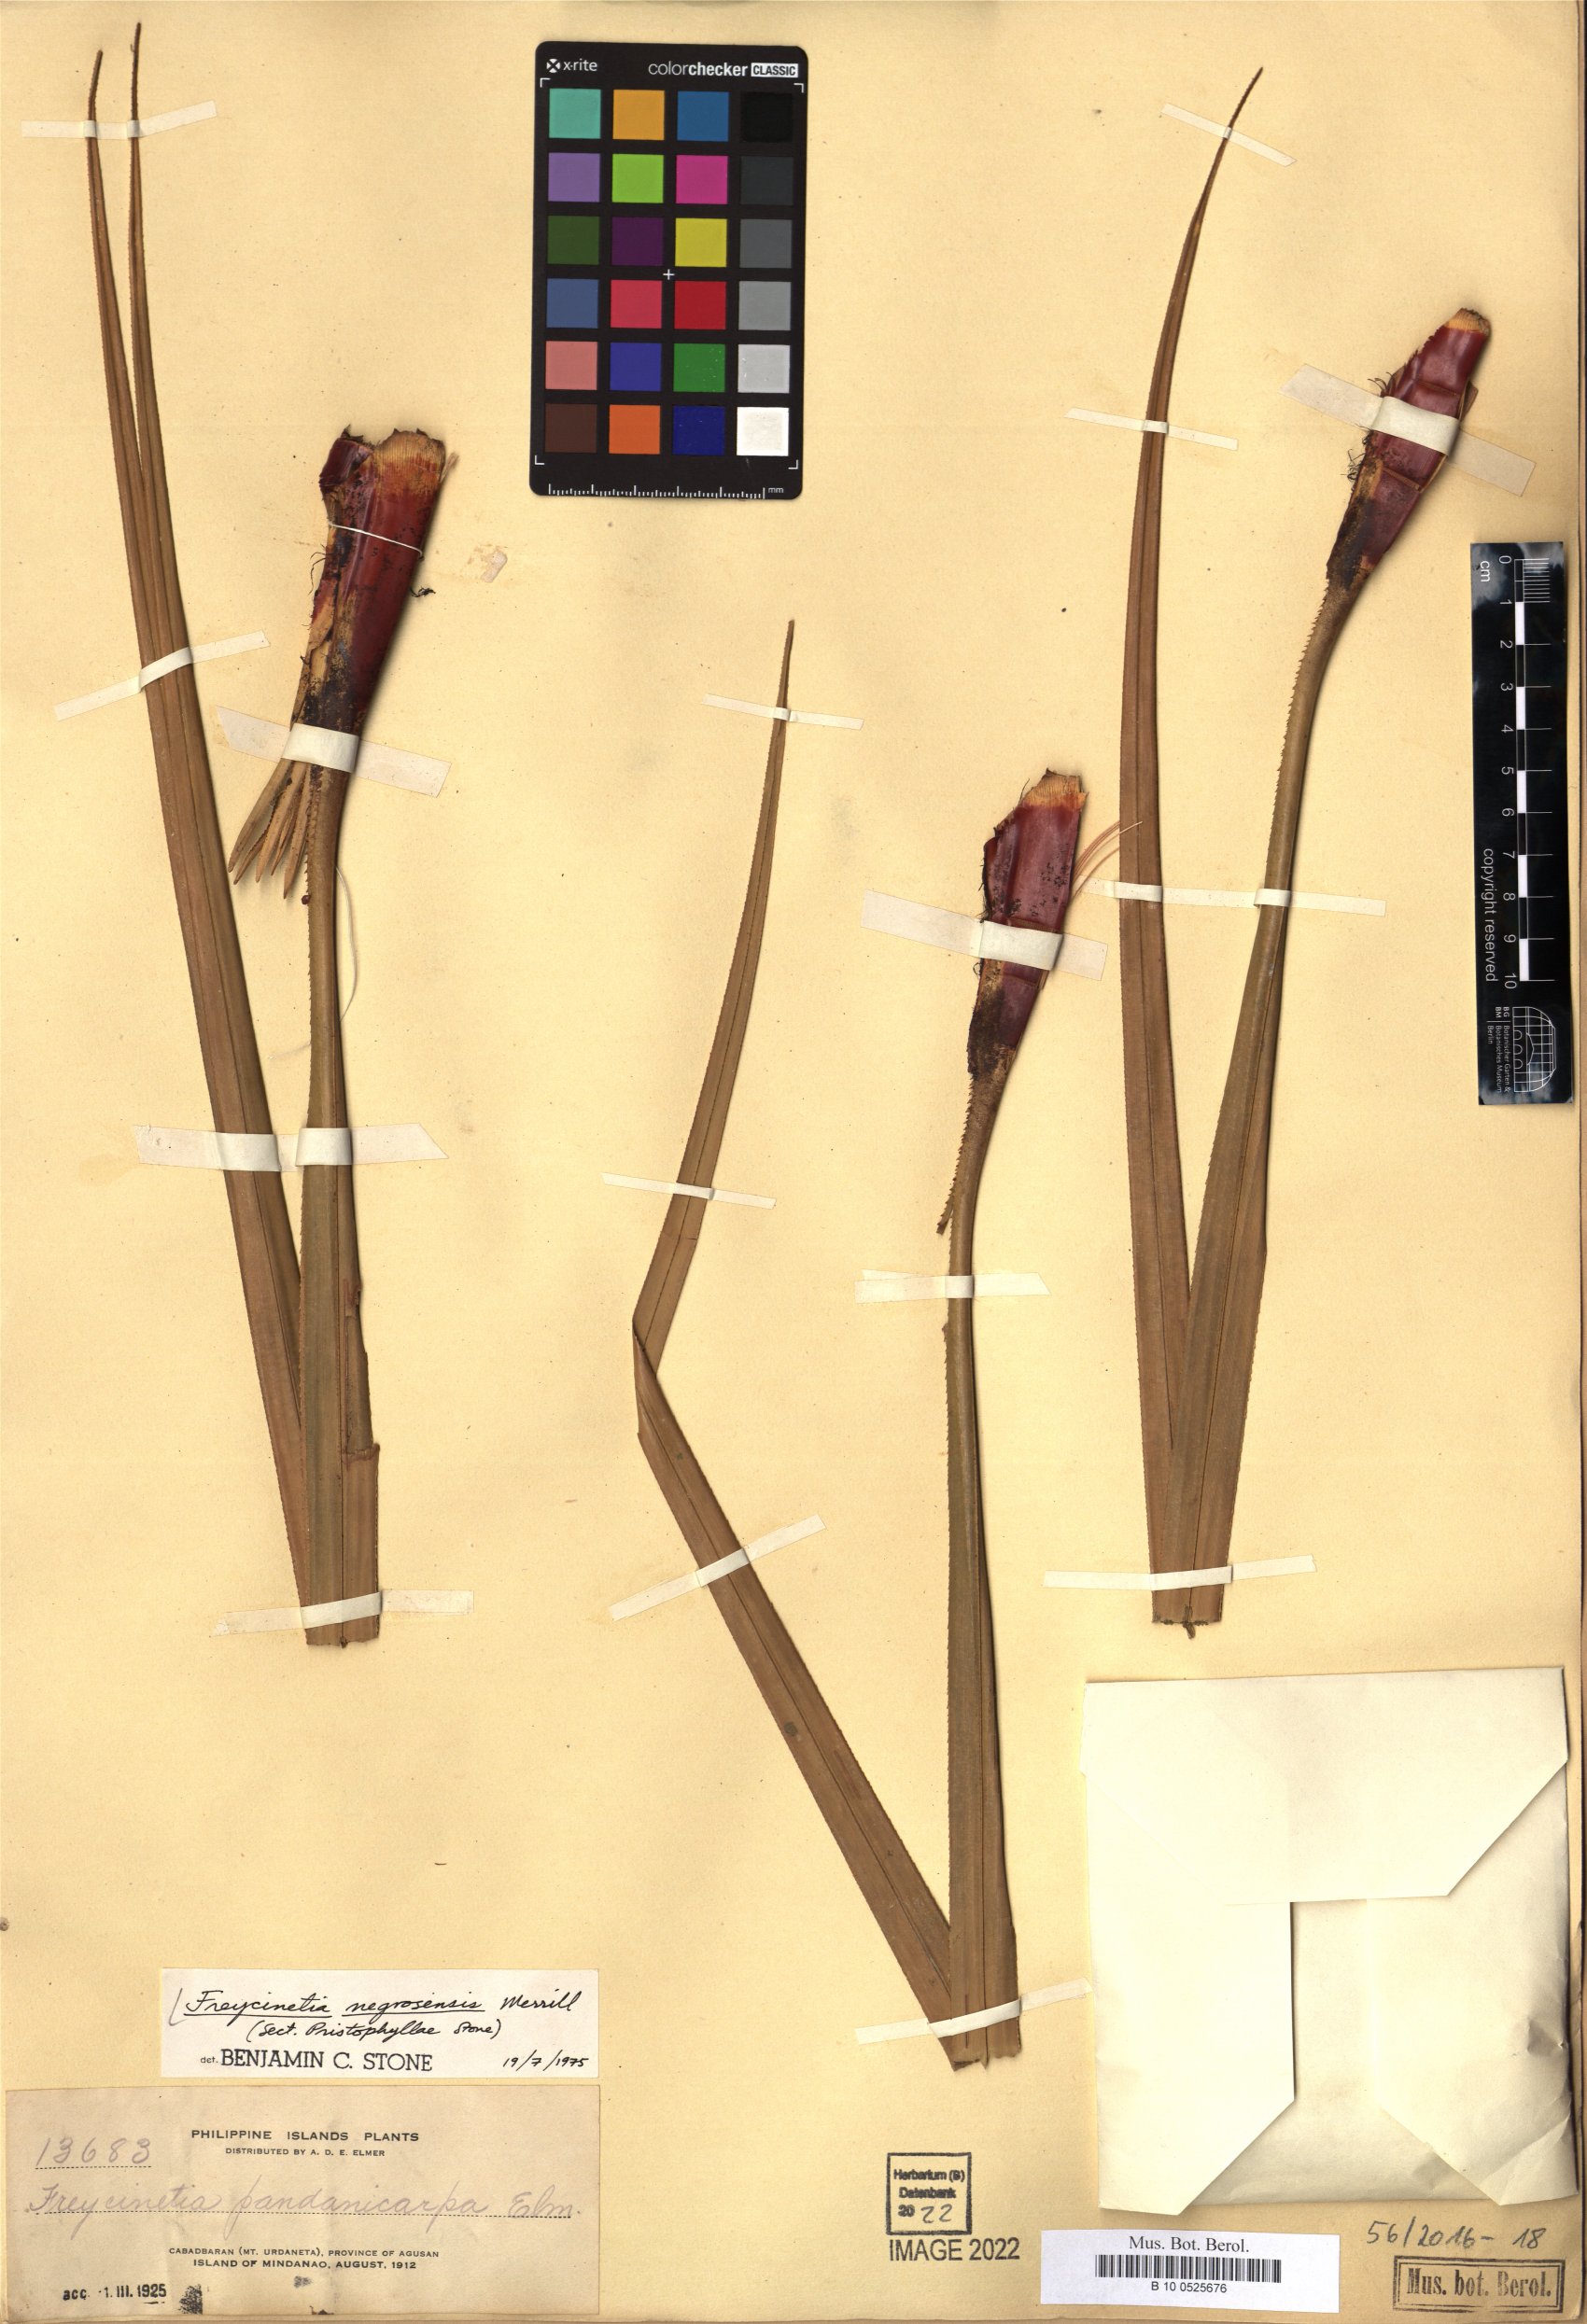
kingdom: Plantae
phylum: Tracheophyta
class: Liliopsida
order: Pandanales
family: Pandanaceae
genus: Freycinetia
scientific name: Freycinetia negrosensis
